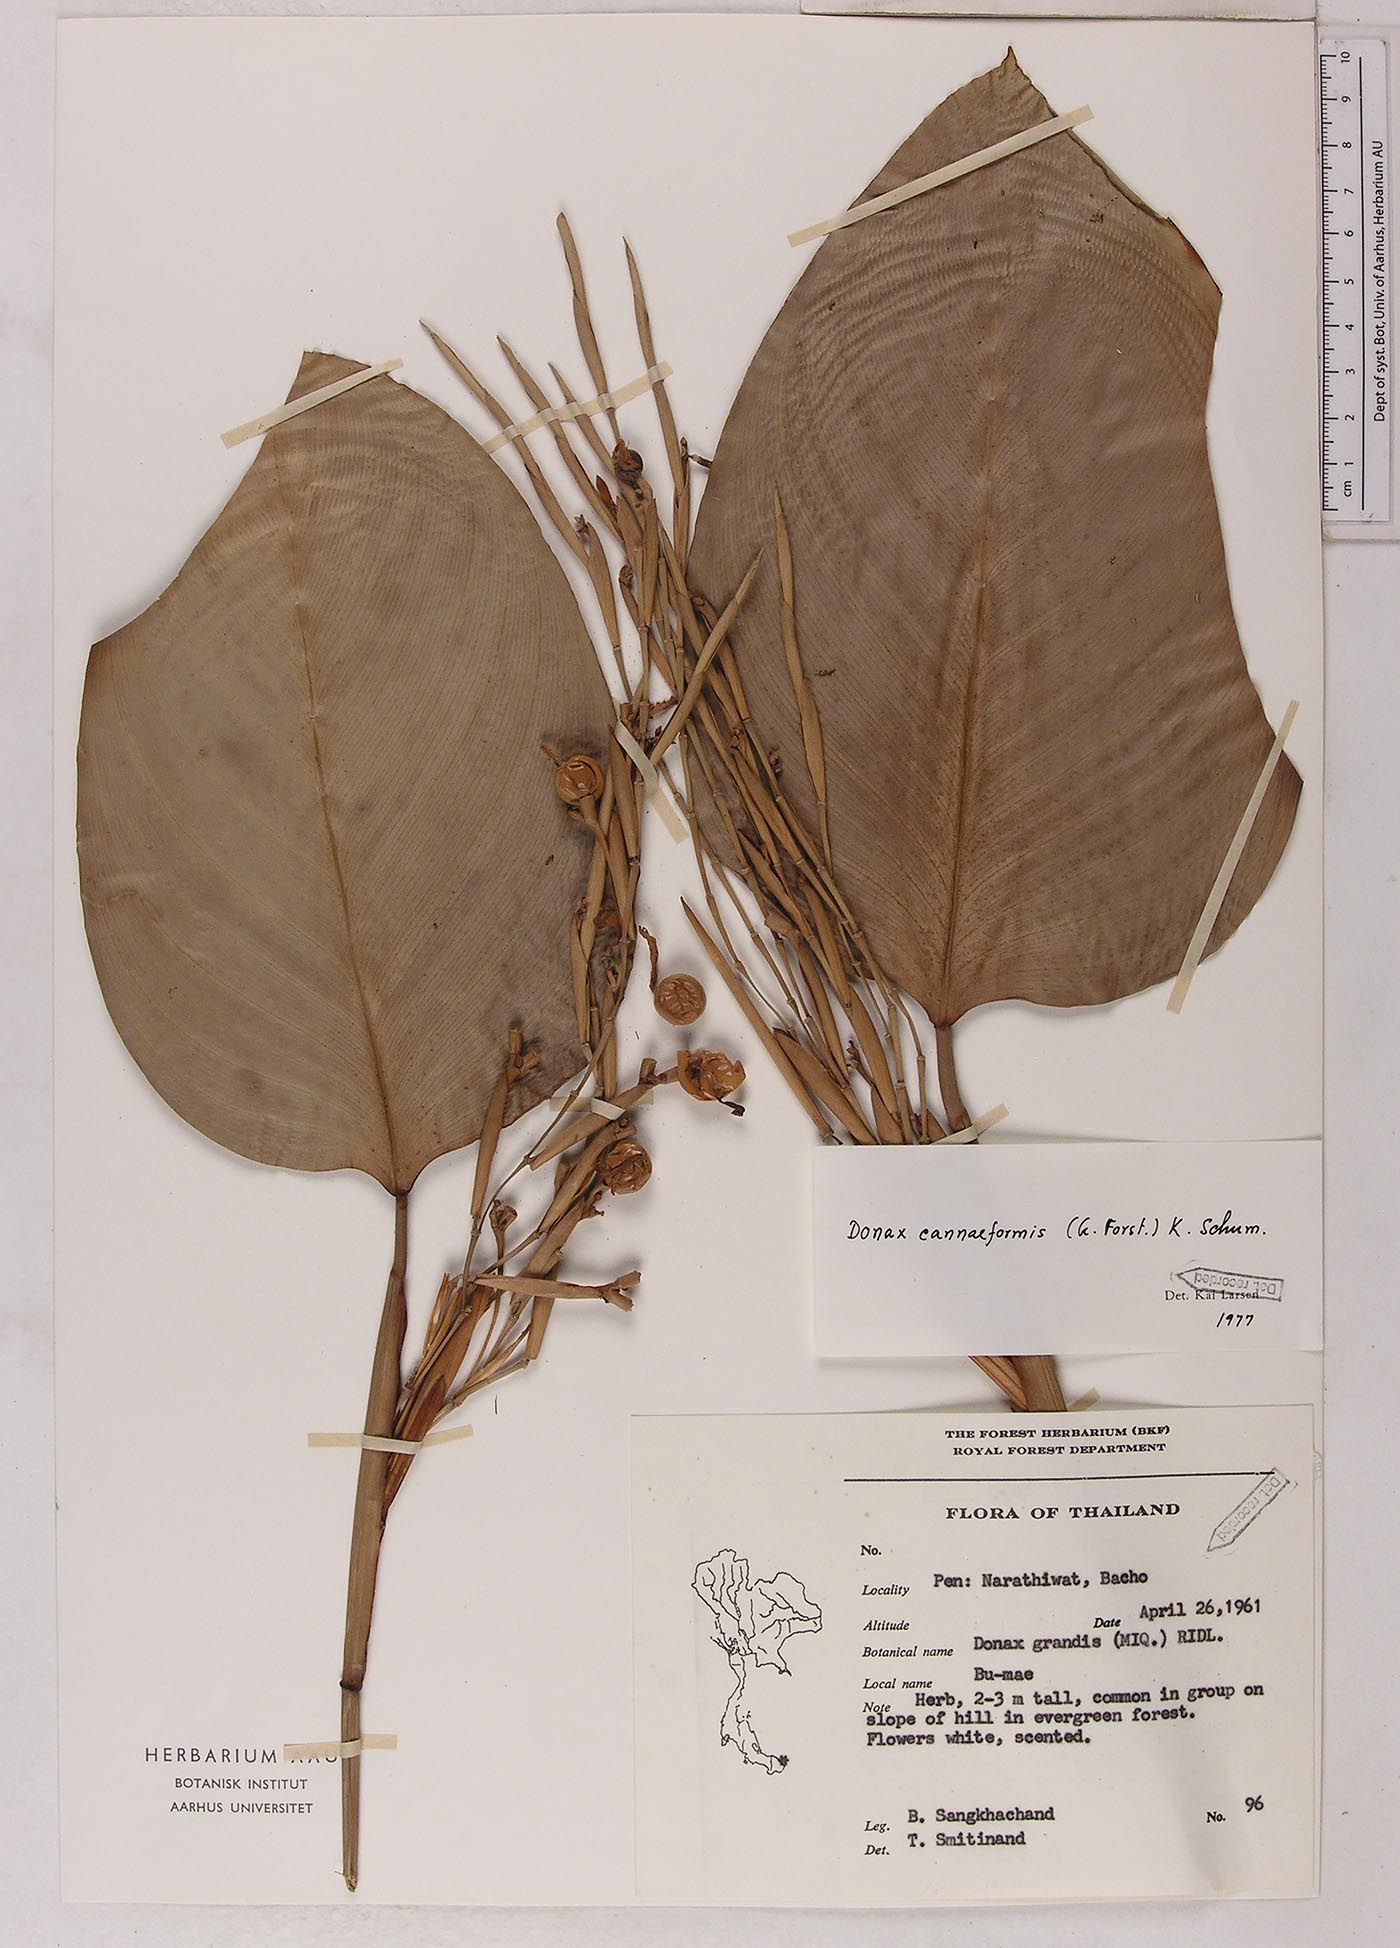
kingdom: Plantae
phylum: Tracheophyta
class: Liliopsida
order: Zingiberales
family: Marantaceae
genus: Donax
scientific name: Donax canniformis
